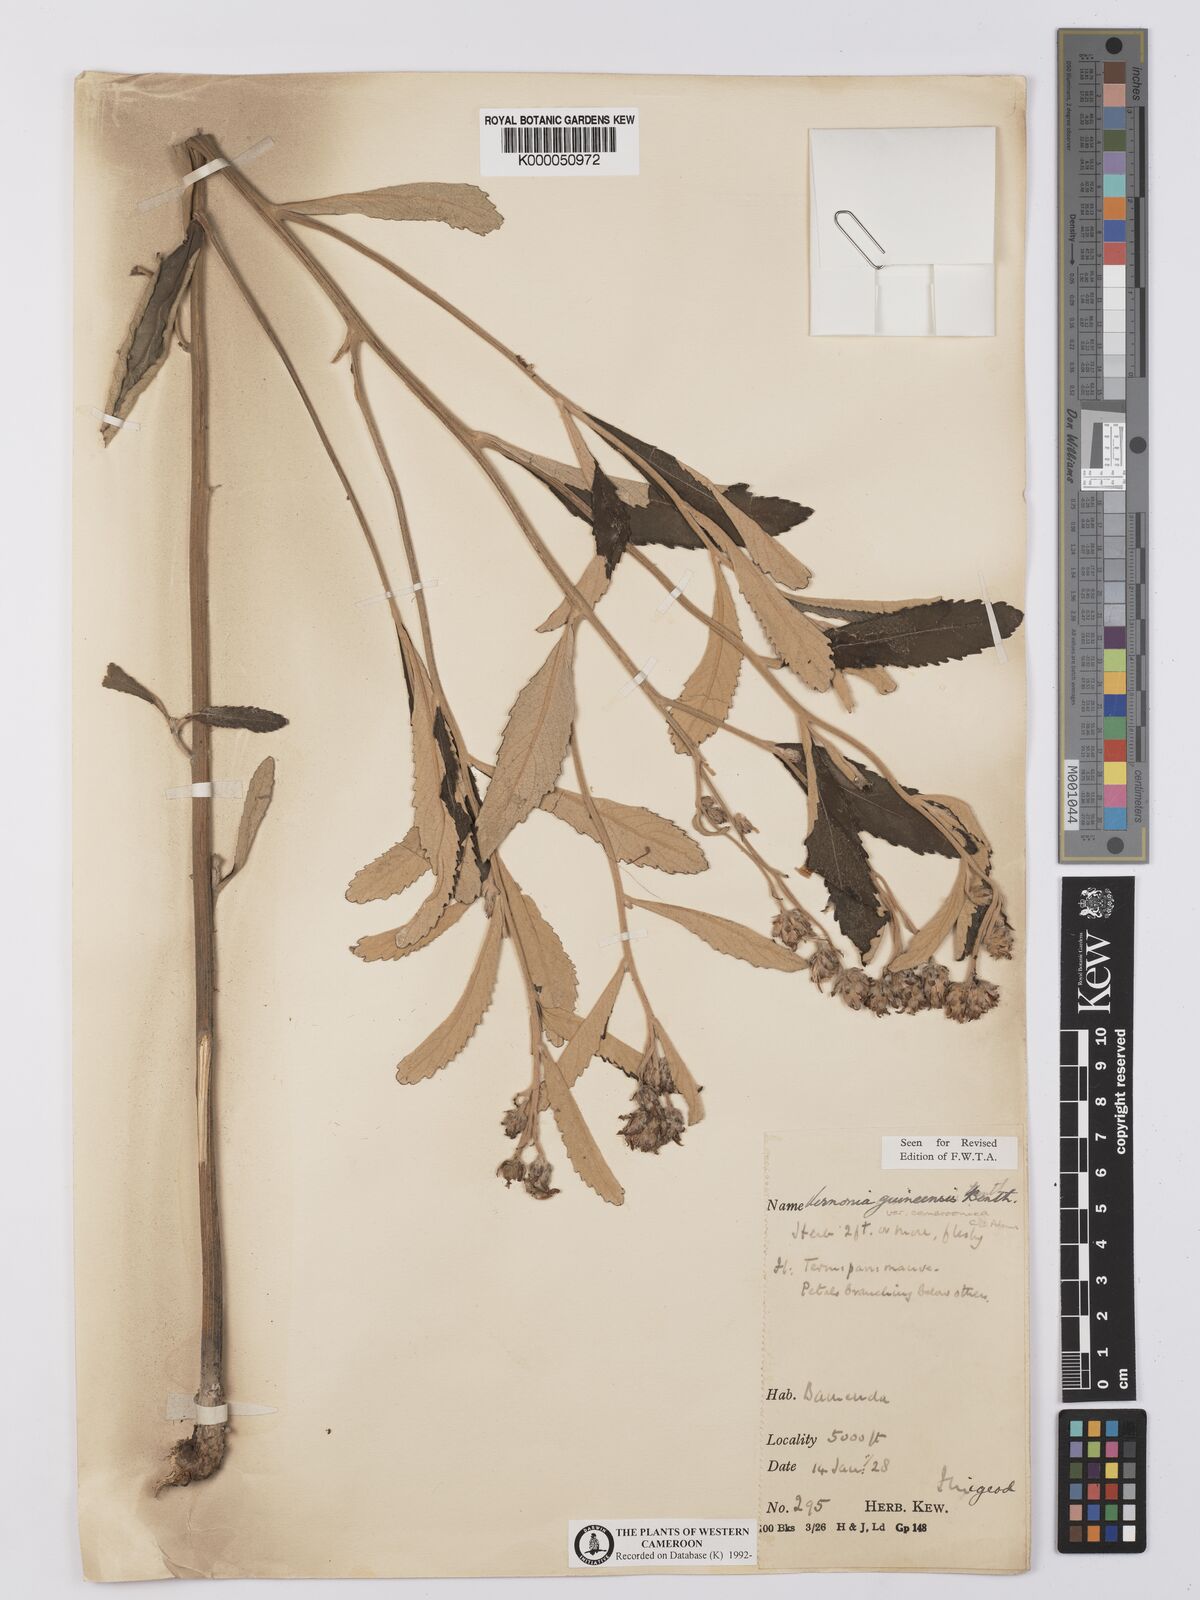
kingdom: Plantae
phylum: Tracheophyta
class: Magnoliopsida
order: Asterales
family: Asteraceae
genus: Baccharoides
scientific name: Baccharoides guineensis
